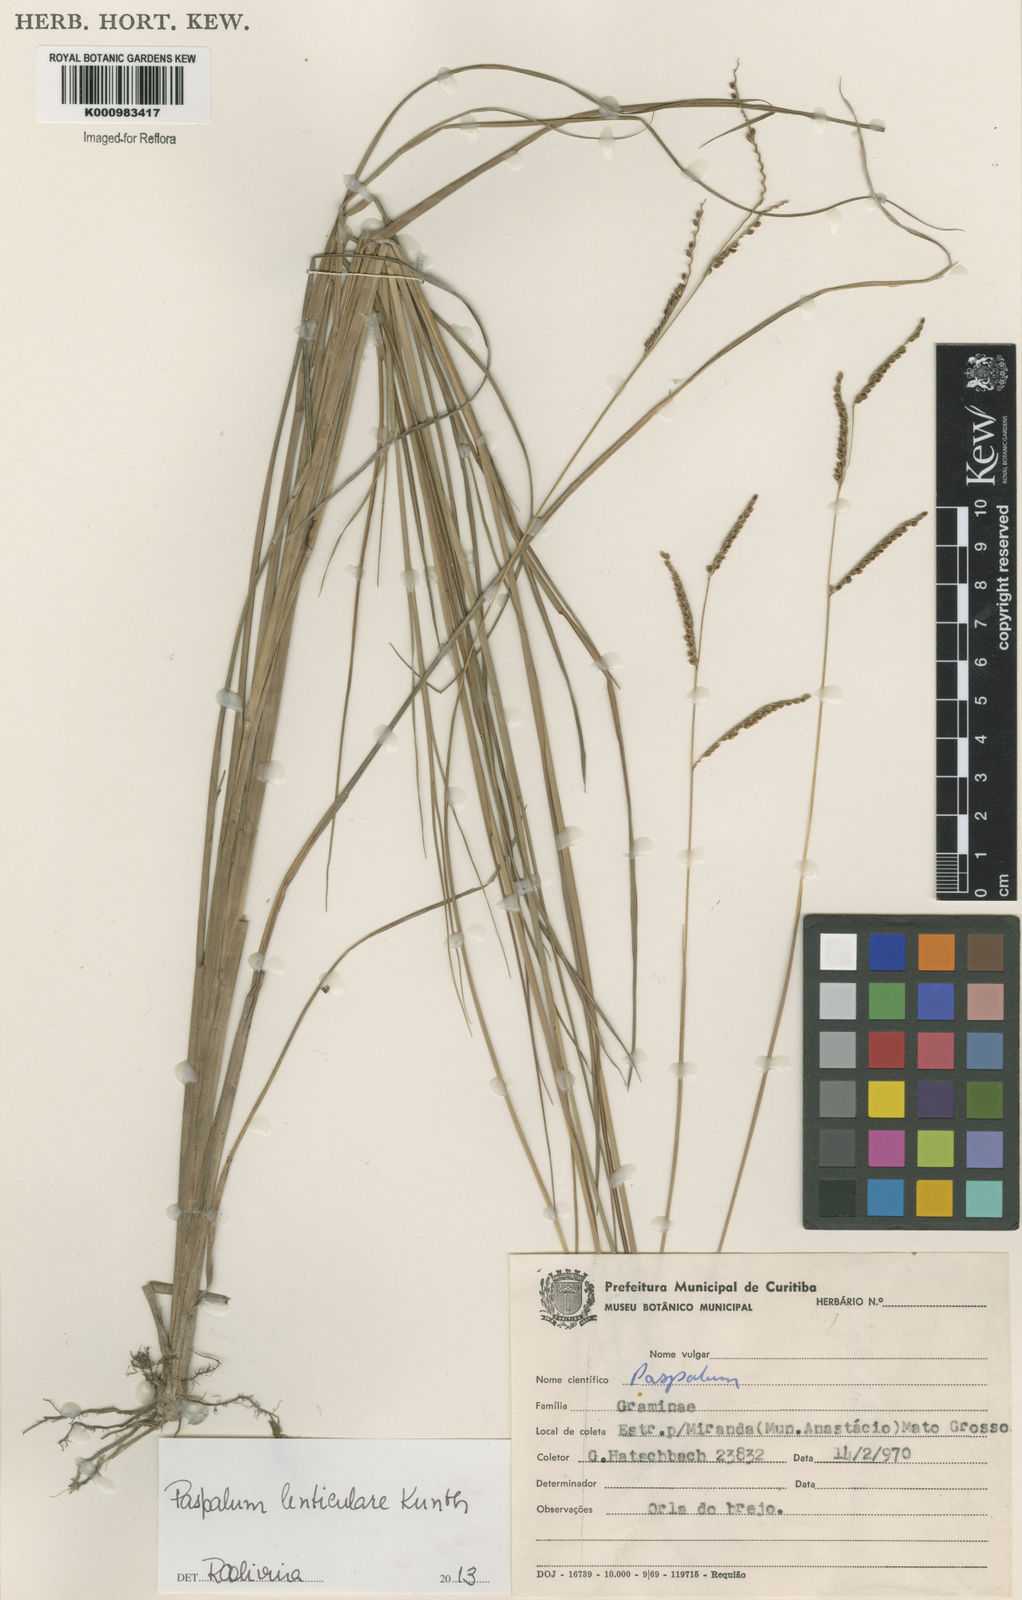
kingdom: Plantae
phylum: Tracheophyta
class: Liliopsida
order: Poales
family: Poaceae
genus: Paspalum
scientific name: Paspalum plicatulum
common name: Top paspalum
